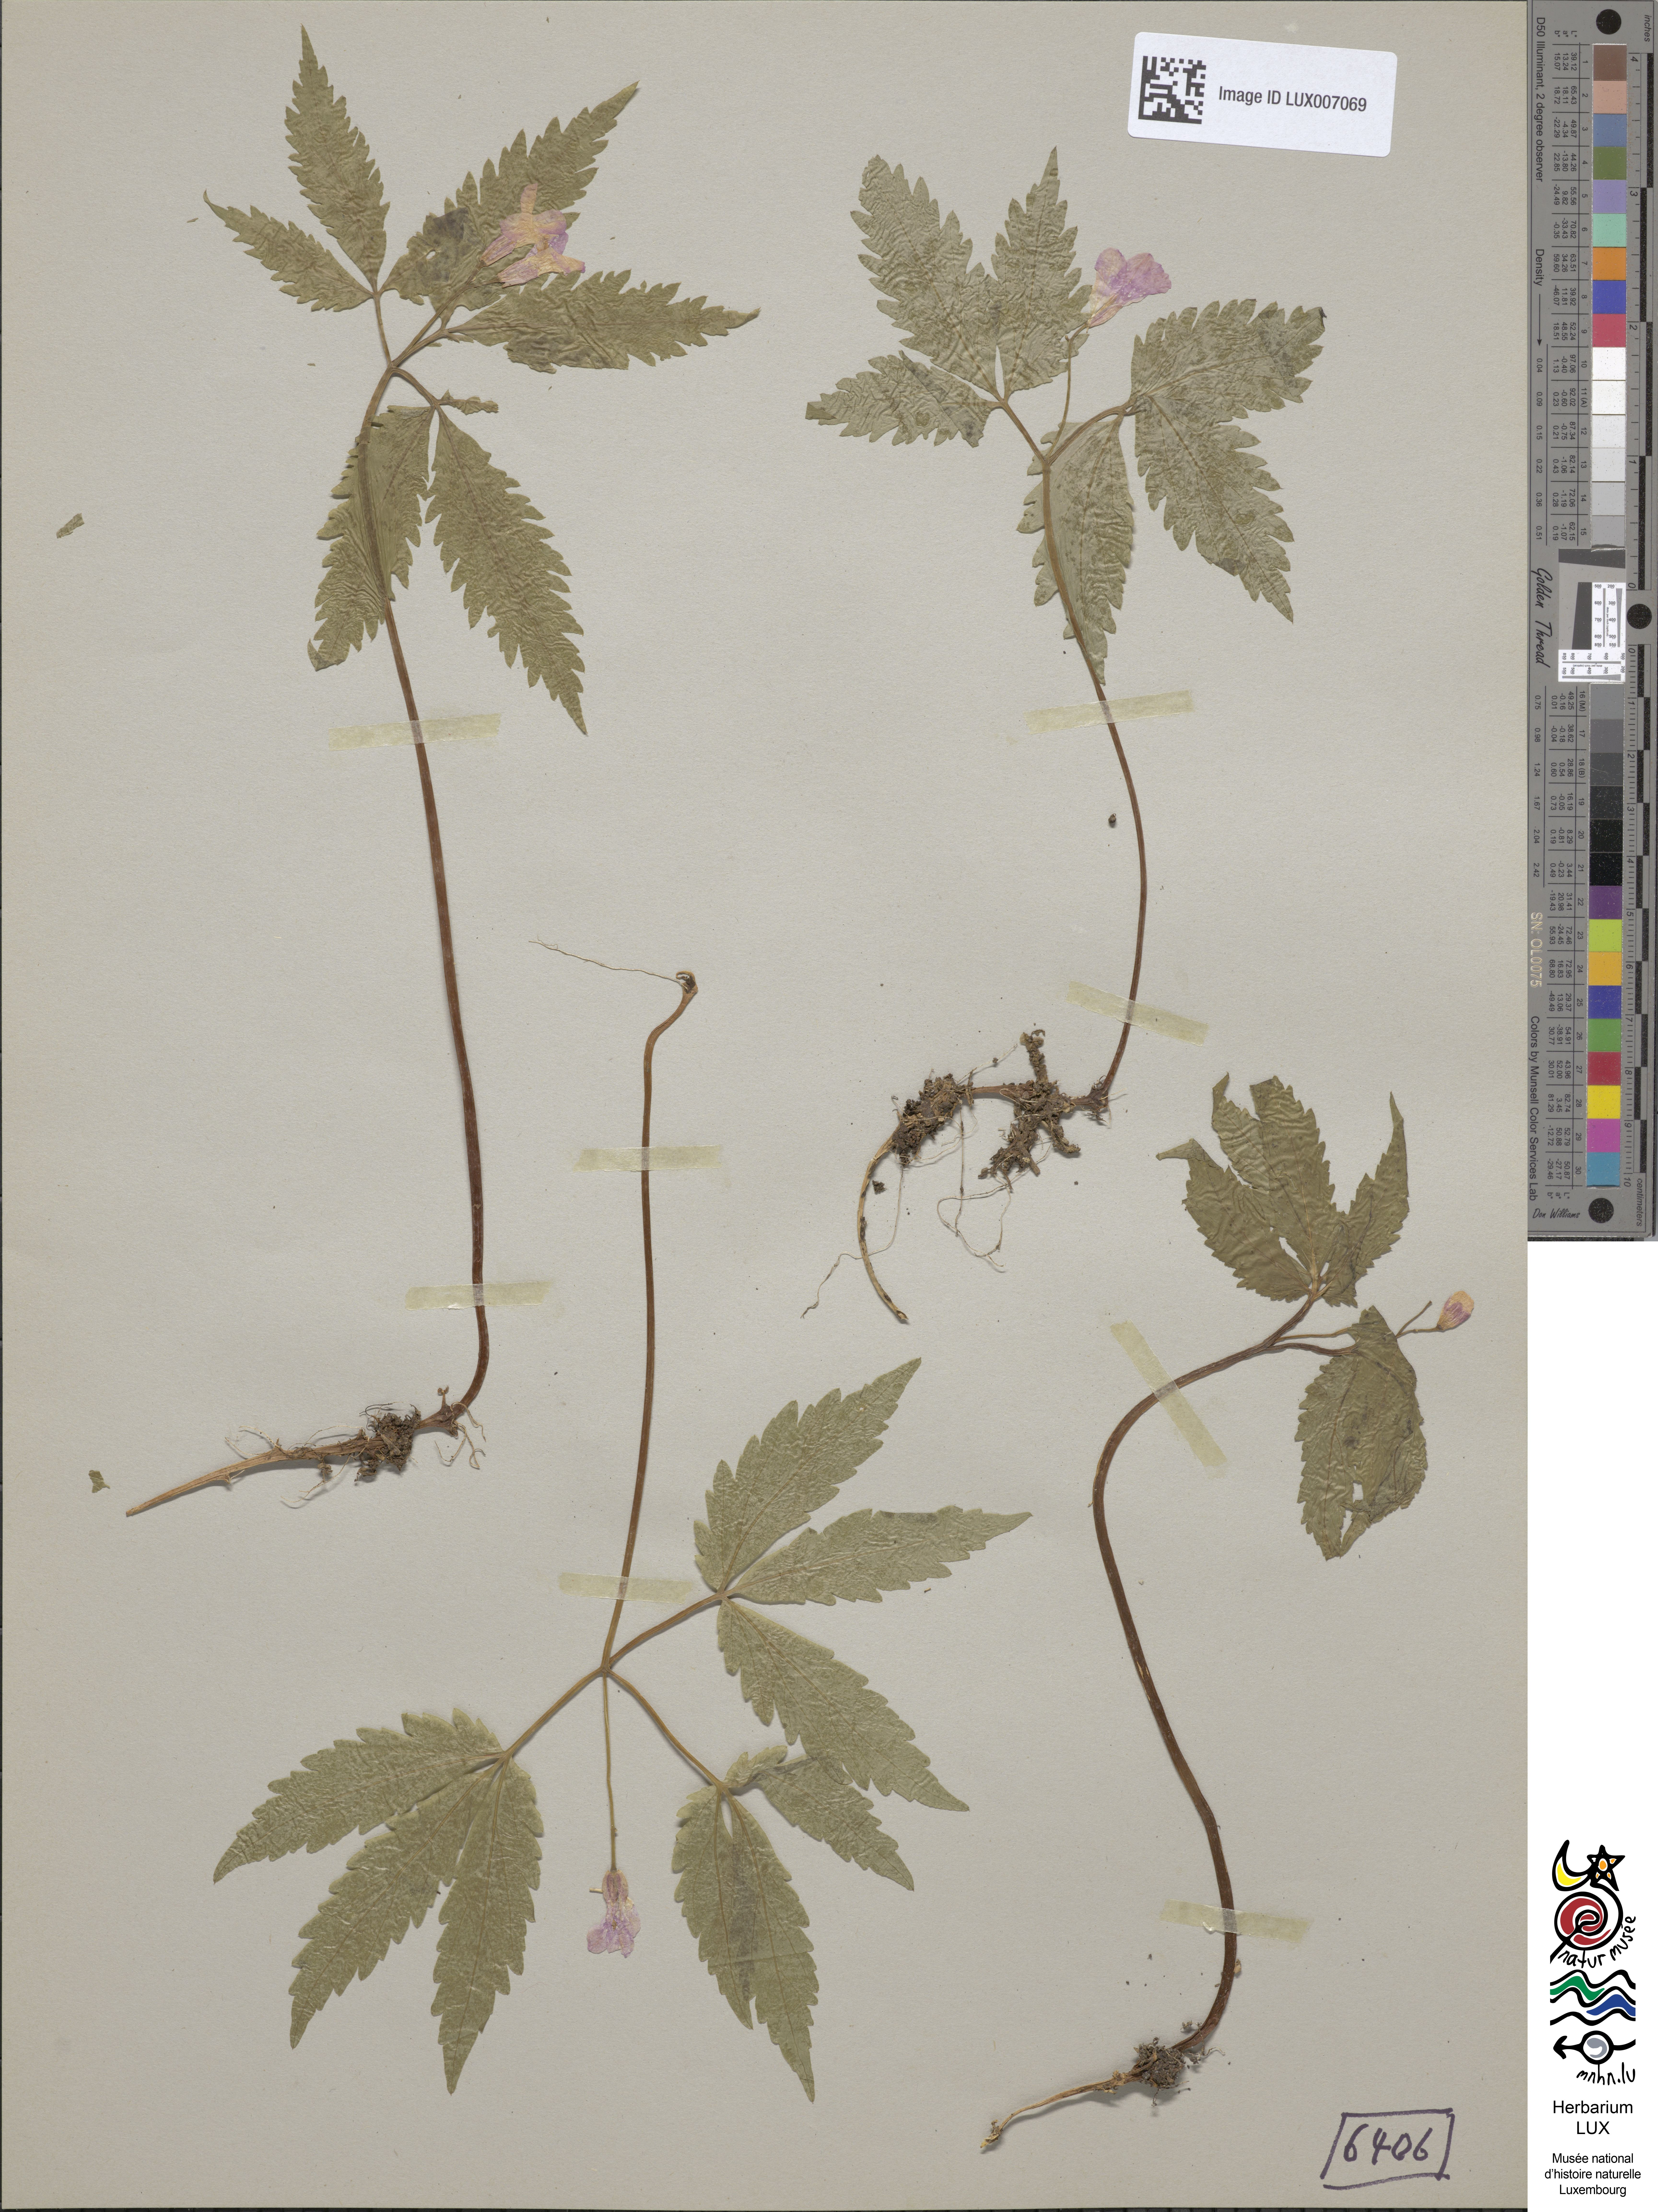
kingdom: Plantae
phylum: Tracheophyta
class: Magnoliopsida
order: Brassicales
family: Brassicaceae
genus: Cardamine
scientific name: Cardamine glanduligera
